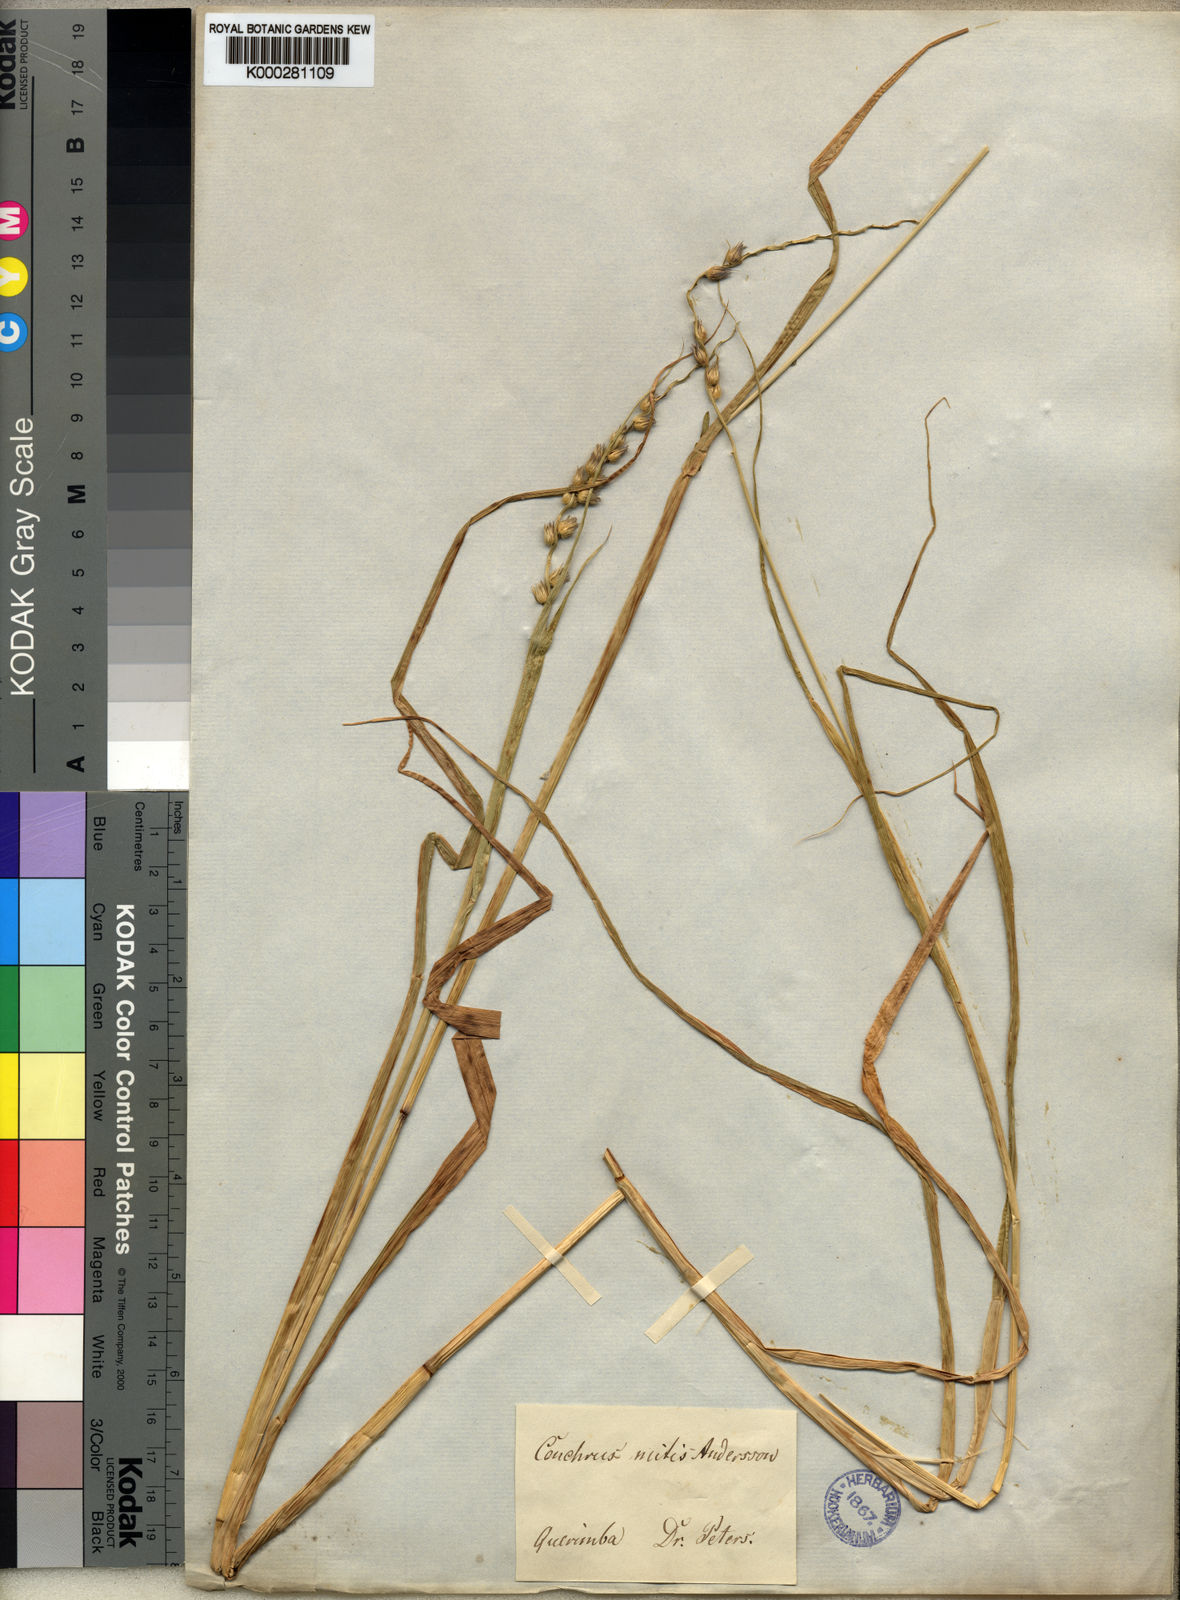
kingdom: Plantae
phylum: Tracheophyta
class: Liliopsida
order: Poales
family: Poaceae
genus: Cenchrus
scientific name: Cenchrus mitis
